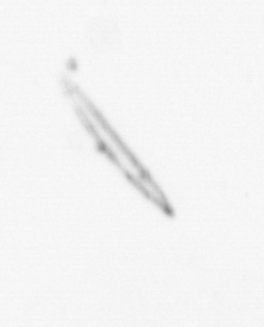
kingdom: Chromista
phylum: Ochrophyta
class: Bacillariophyceae
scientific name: Bacillariophyceae
